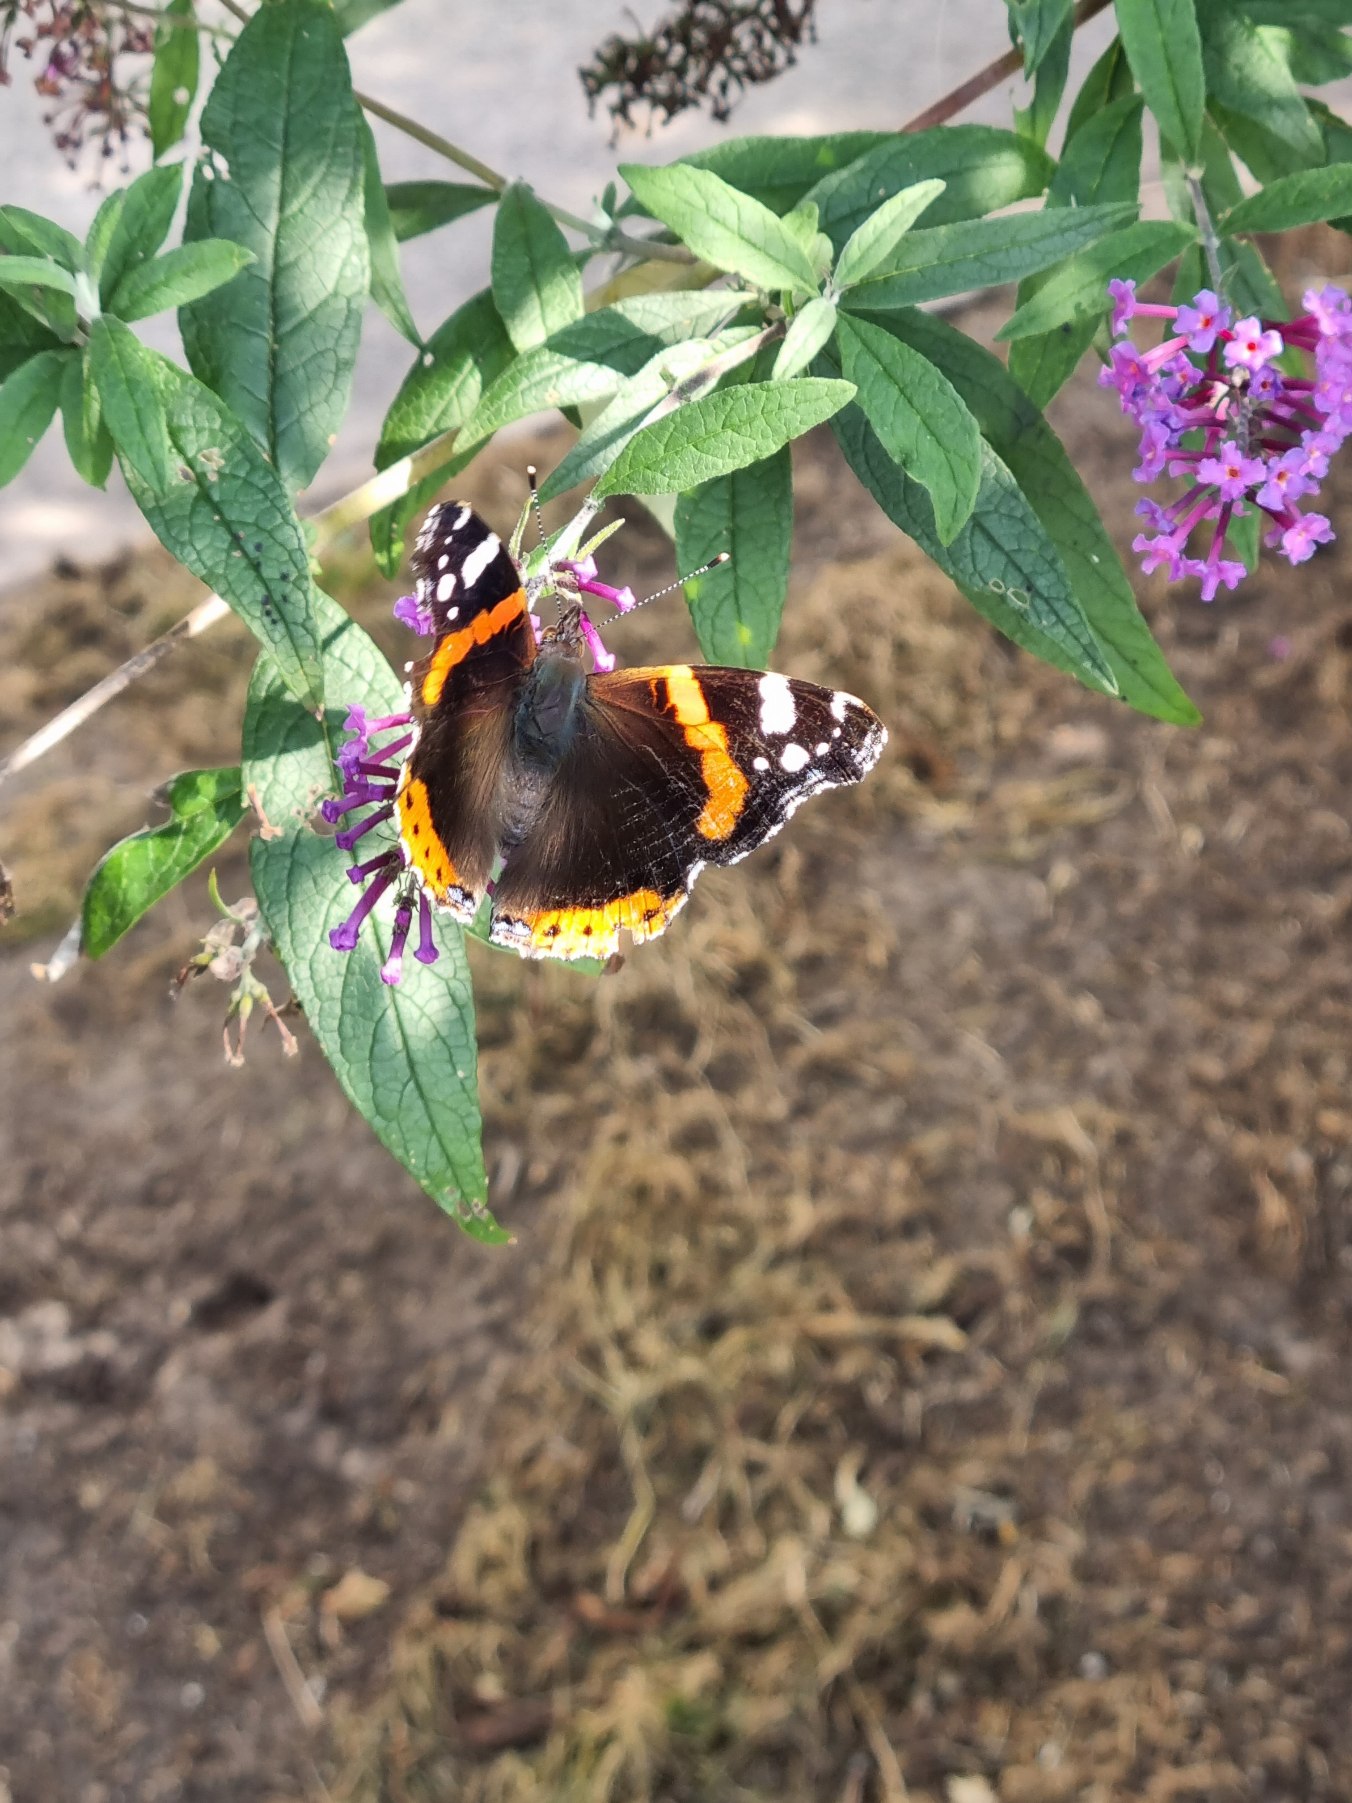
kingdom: Animalia
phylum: Arthropoda
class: Insecta
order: Lepidoptera
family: Nymphalidae
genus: Vanessa
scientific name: Vanessa atalanta
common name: Admiral
